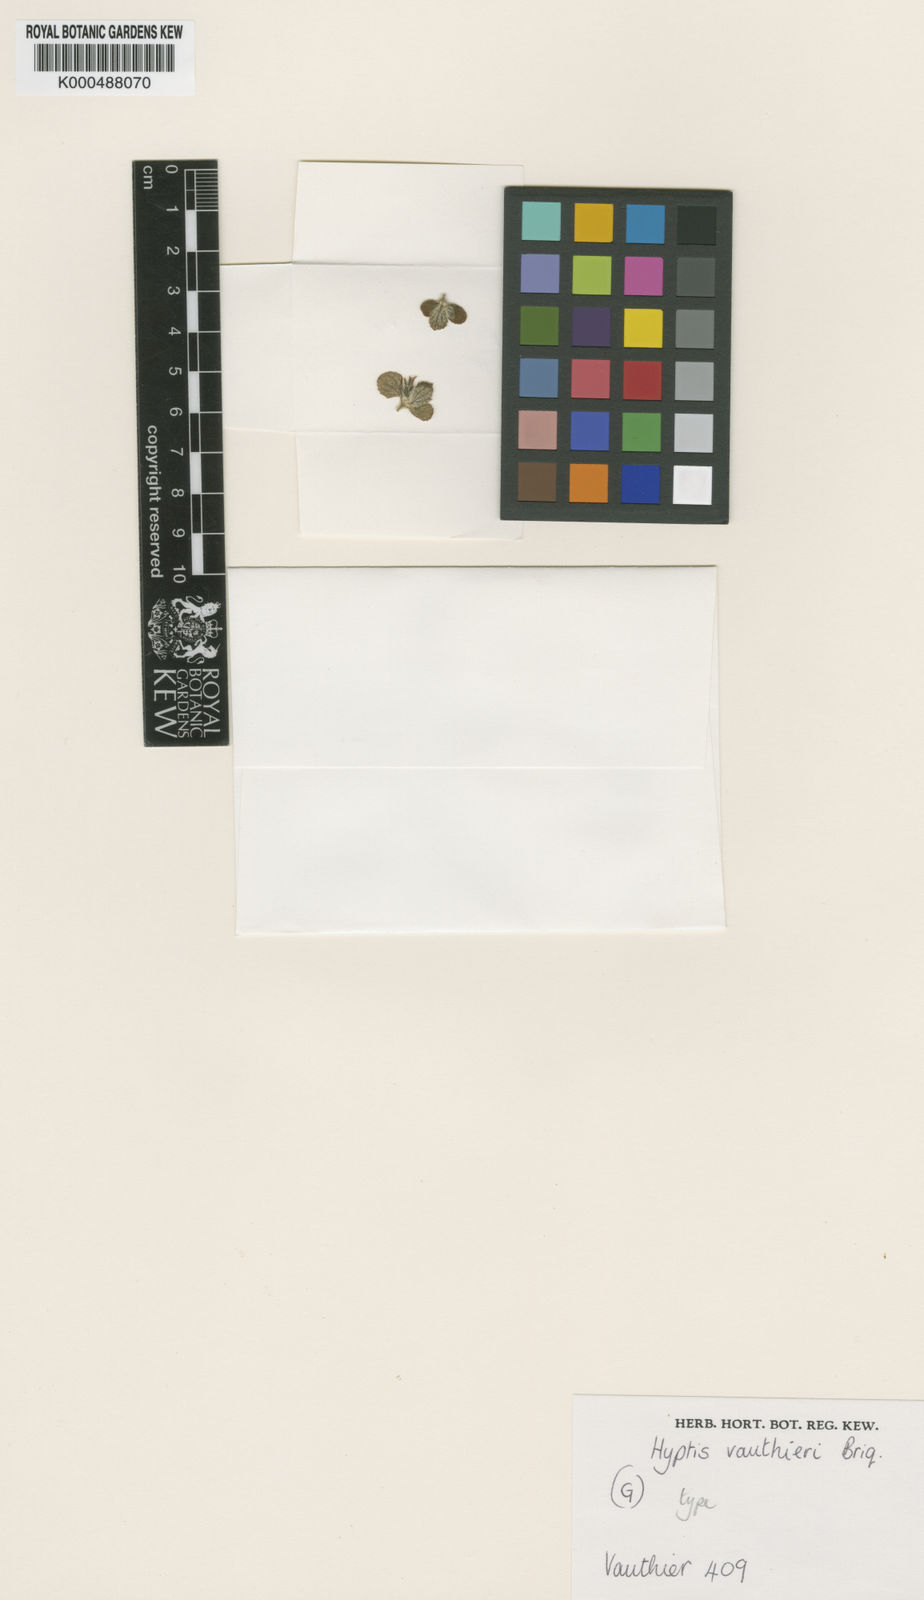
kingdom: Plantae
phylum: Tracheophyta
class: Magnoliopsida
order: Lamiales
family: Lamiaceae
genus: Hyptidendron
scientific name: Hyptidendron vauthieri
